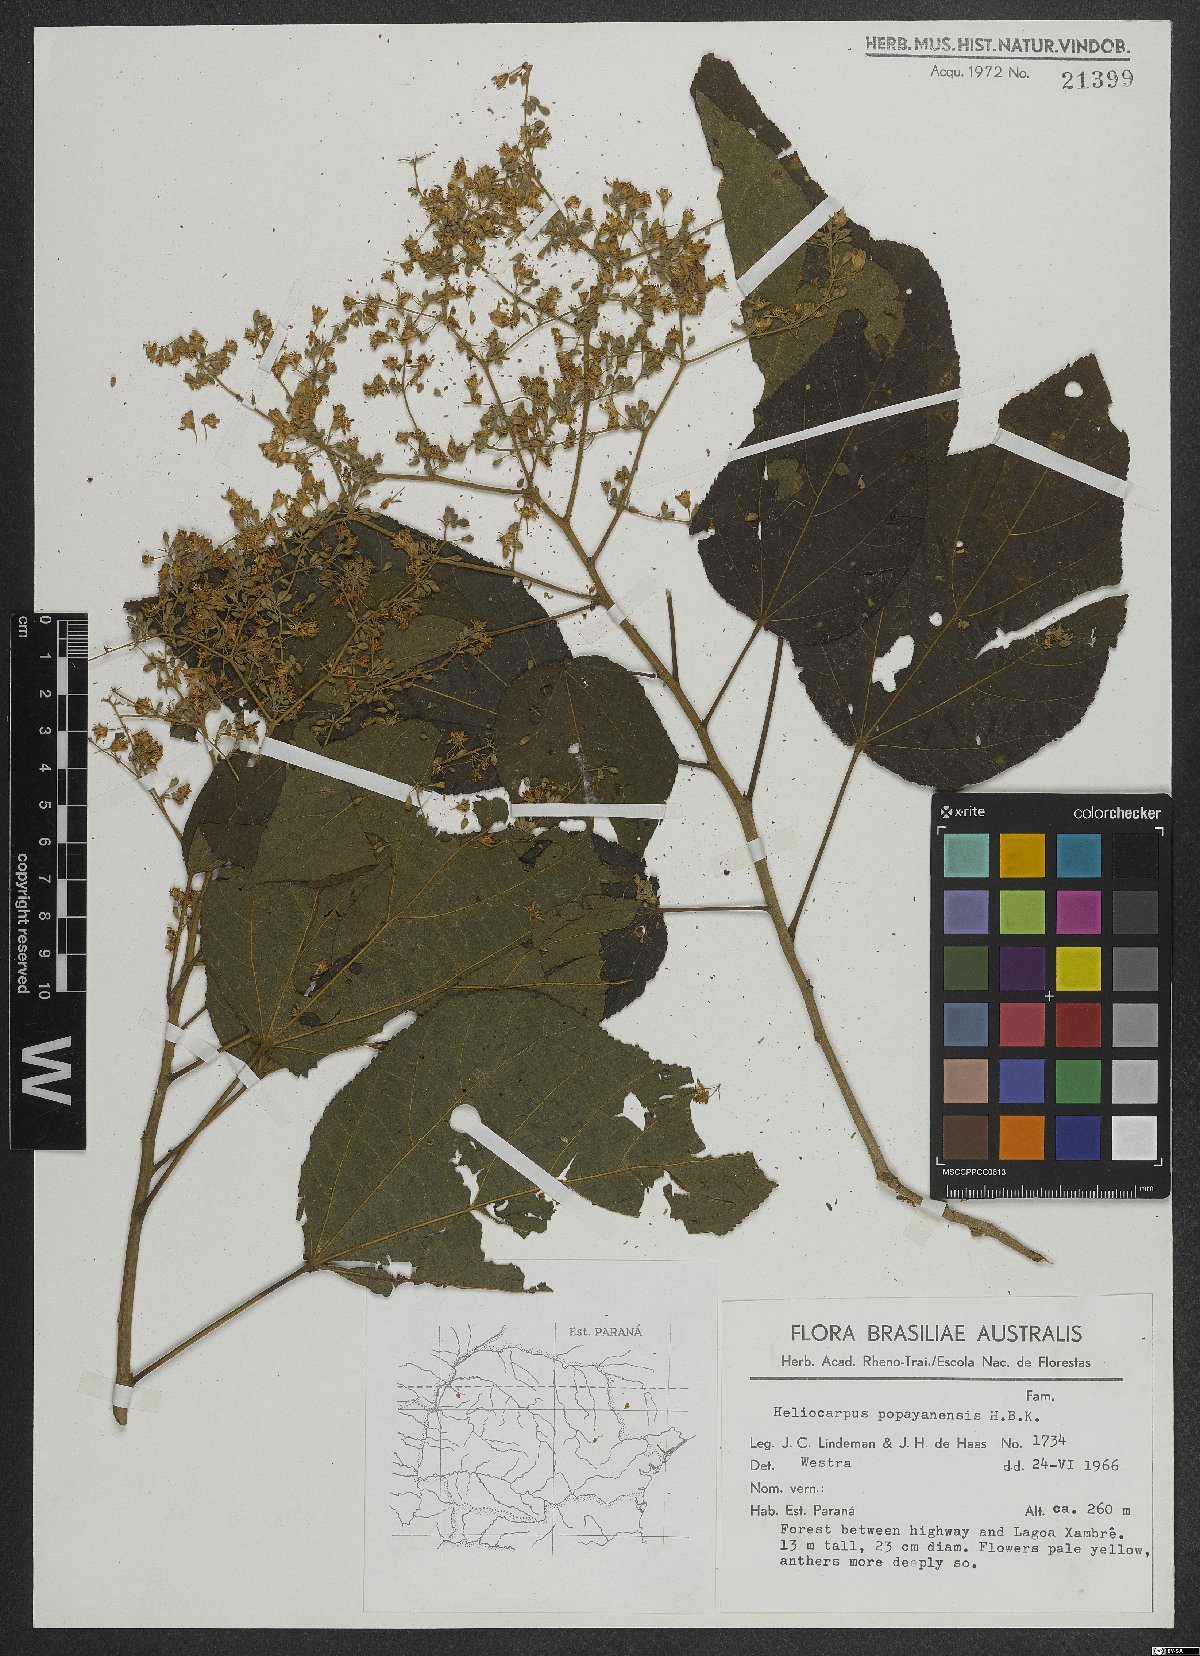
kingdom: Plantae
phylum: Tracheophyta
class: Magnoliopsida
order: Malvales
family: Malvaceae
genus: Heliocarpus
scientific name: Heliocarpus americanus
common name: White moho
